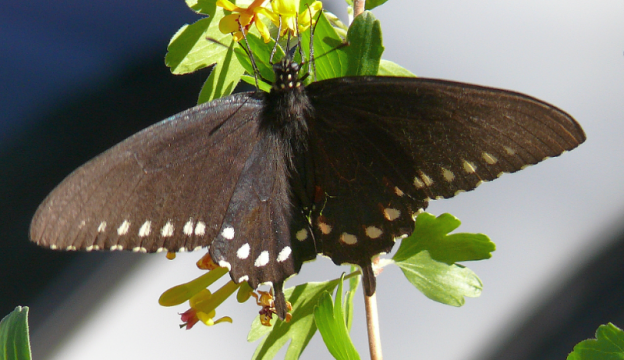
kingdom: Animalia
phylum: Arthropoda
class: Insecta
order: Lepidoptera
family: Papilionidae
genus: Battus
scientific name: Battus philenor
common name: Pipevine Swallowtail
